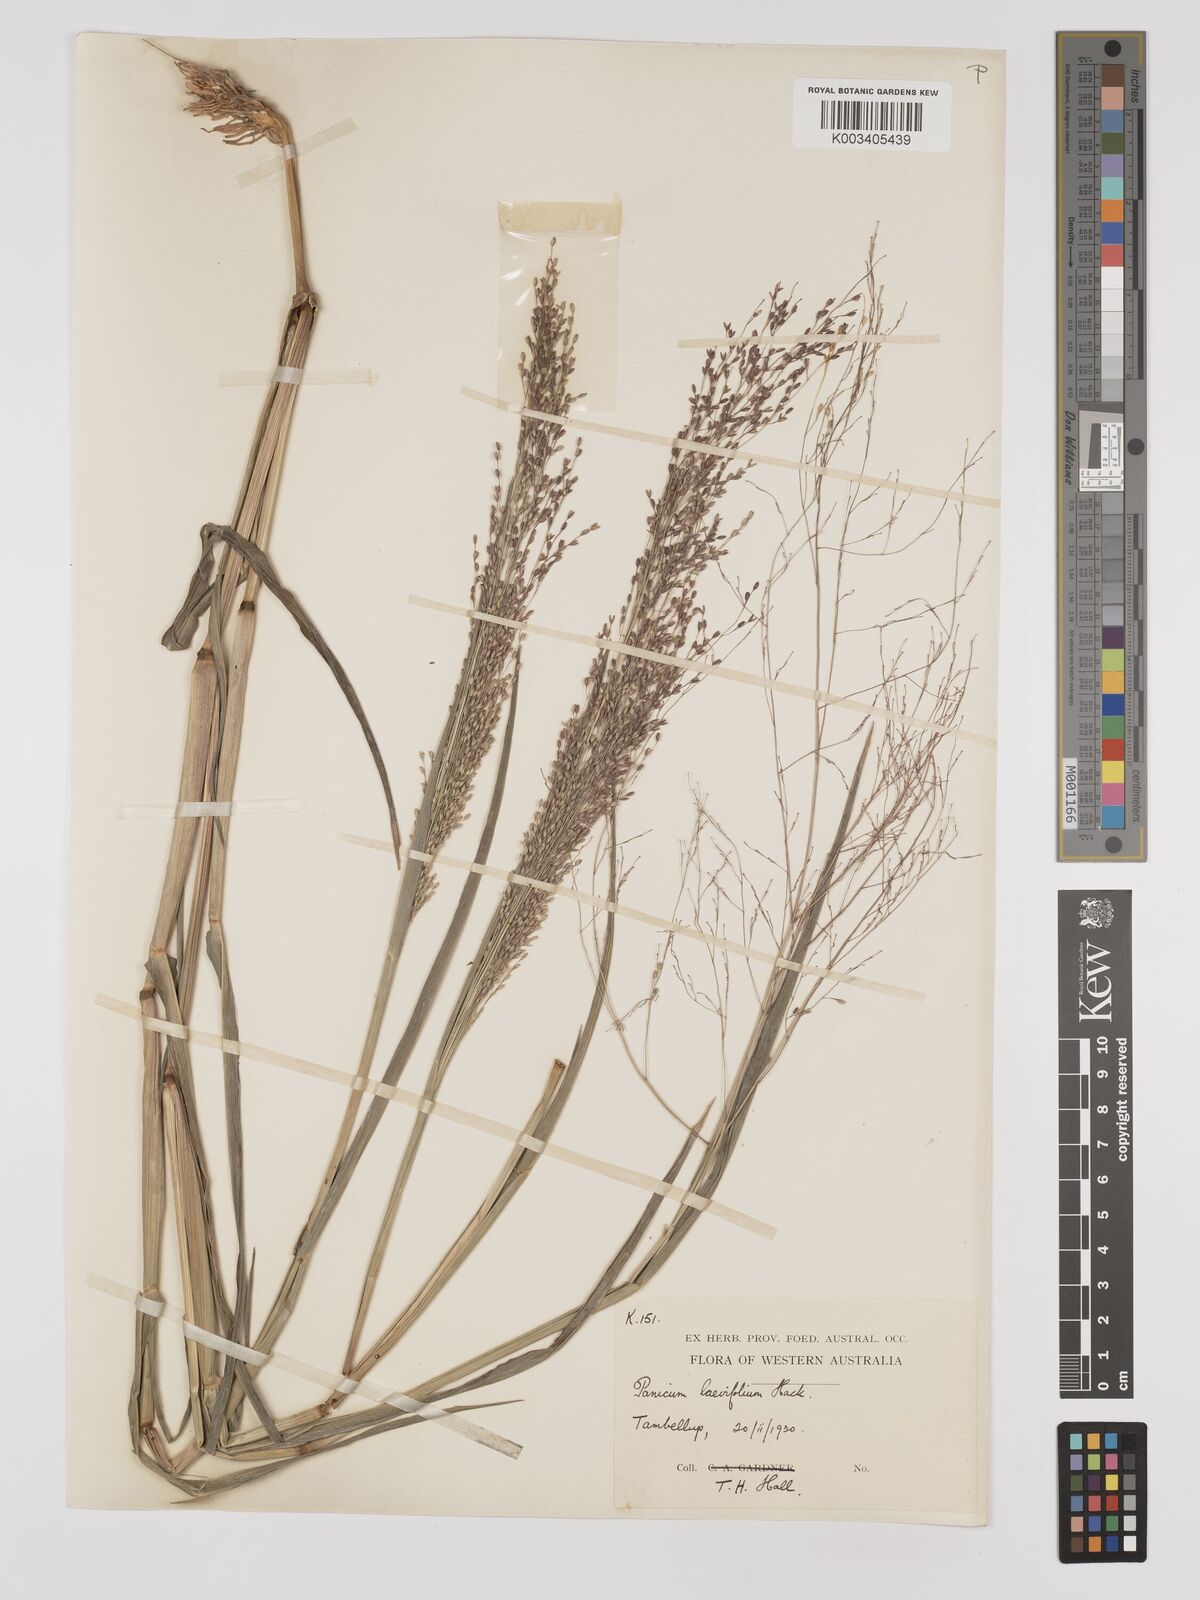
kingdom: Plantae
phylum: Tracheophyta
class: Liliopsida
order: Poales
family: Poaceae
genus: Panicum
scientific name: Panicum schinzii
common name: Sweet grass
